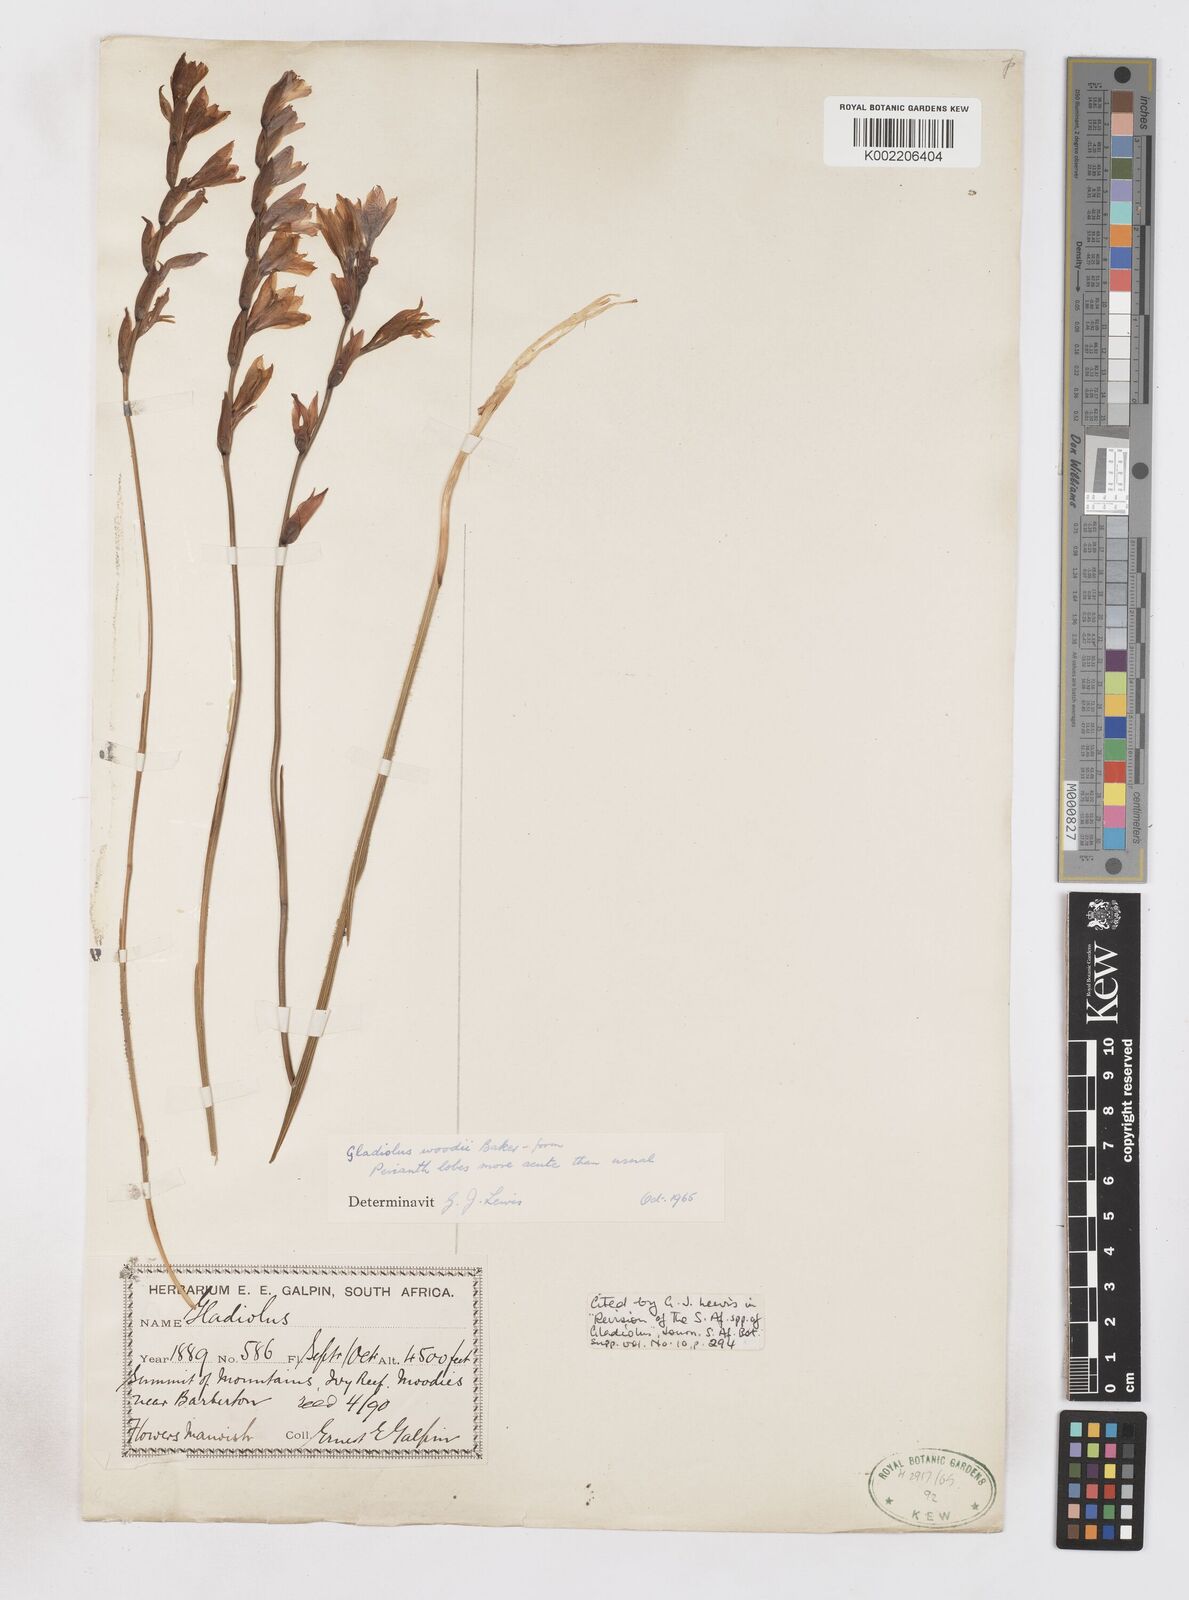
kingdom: Plantae
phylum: Tracheophyta
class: Liliopsida
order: Asparagales
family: Iridaceae
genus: Gladiolus
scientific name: Gladiolus woodii
